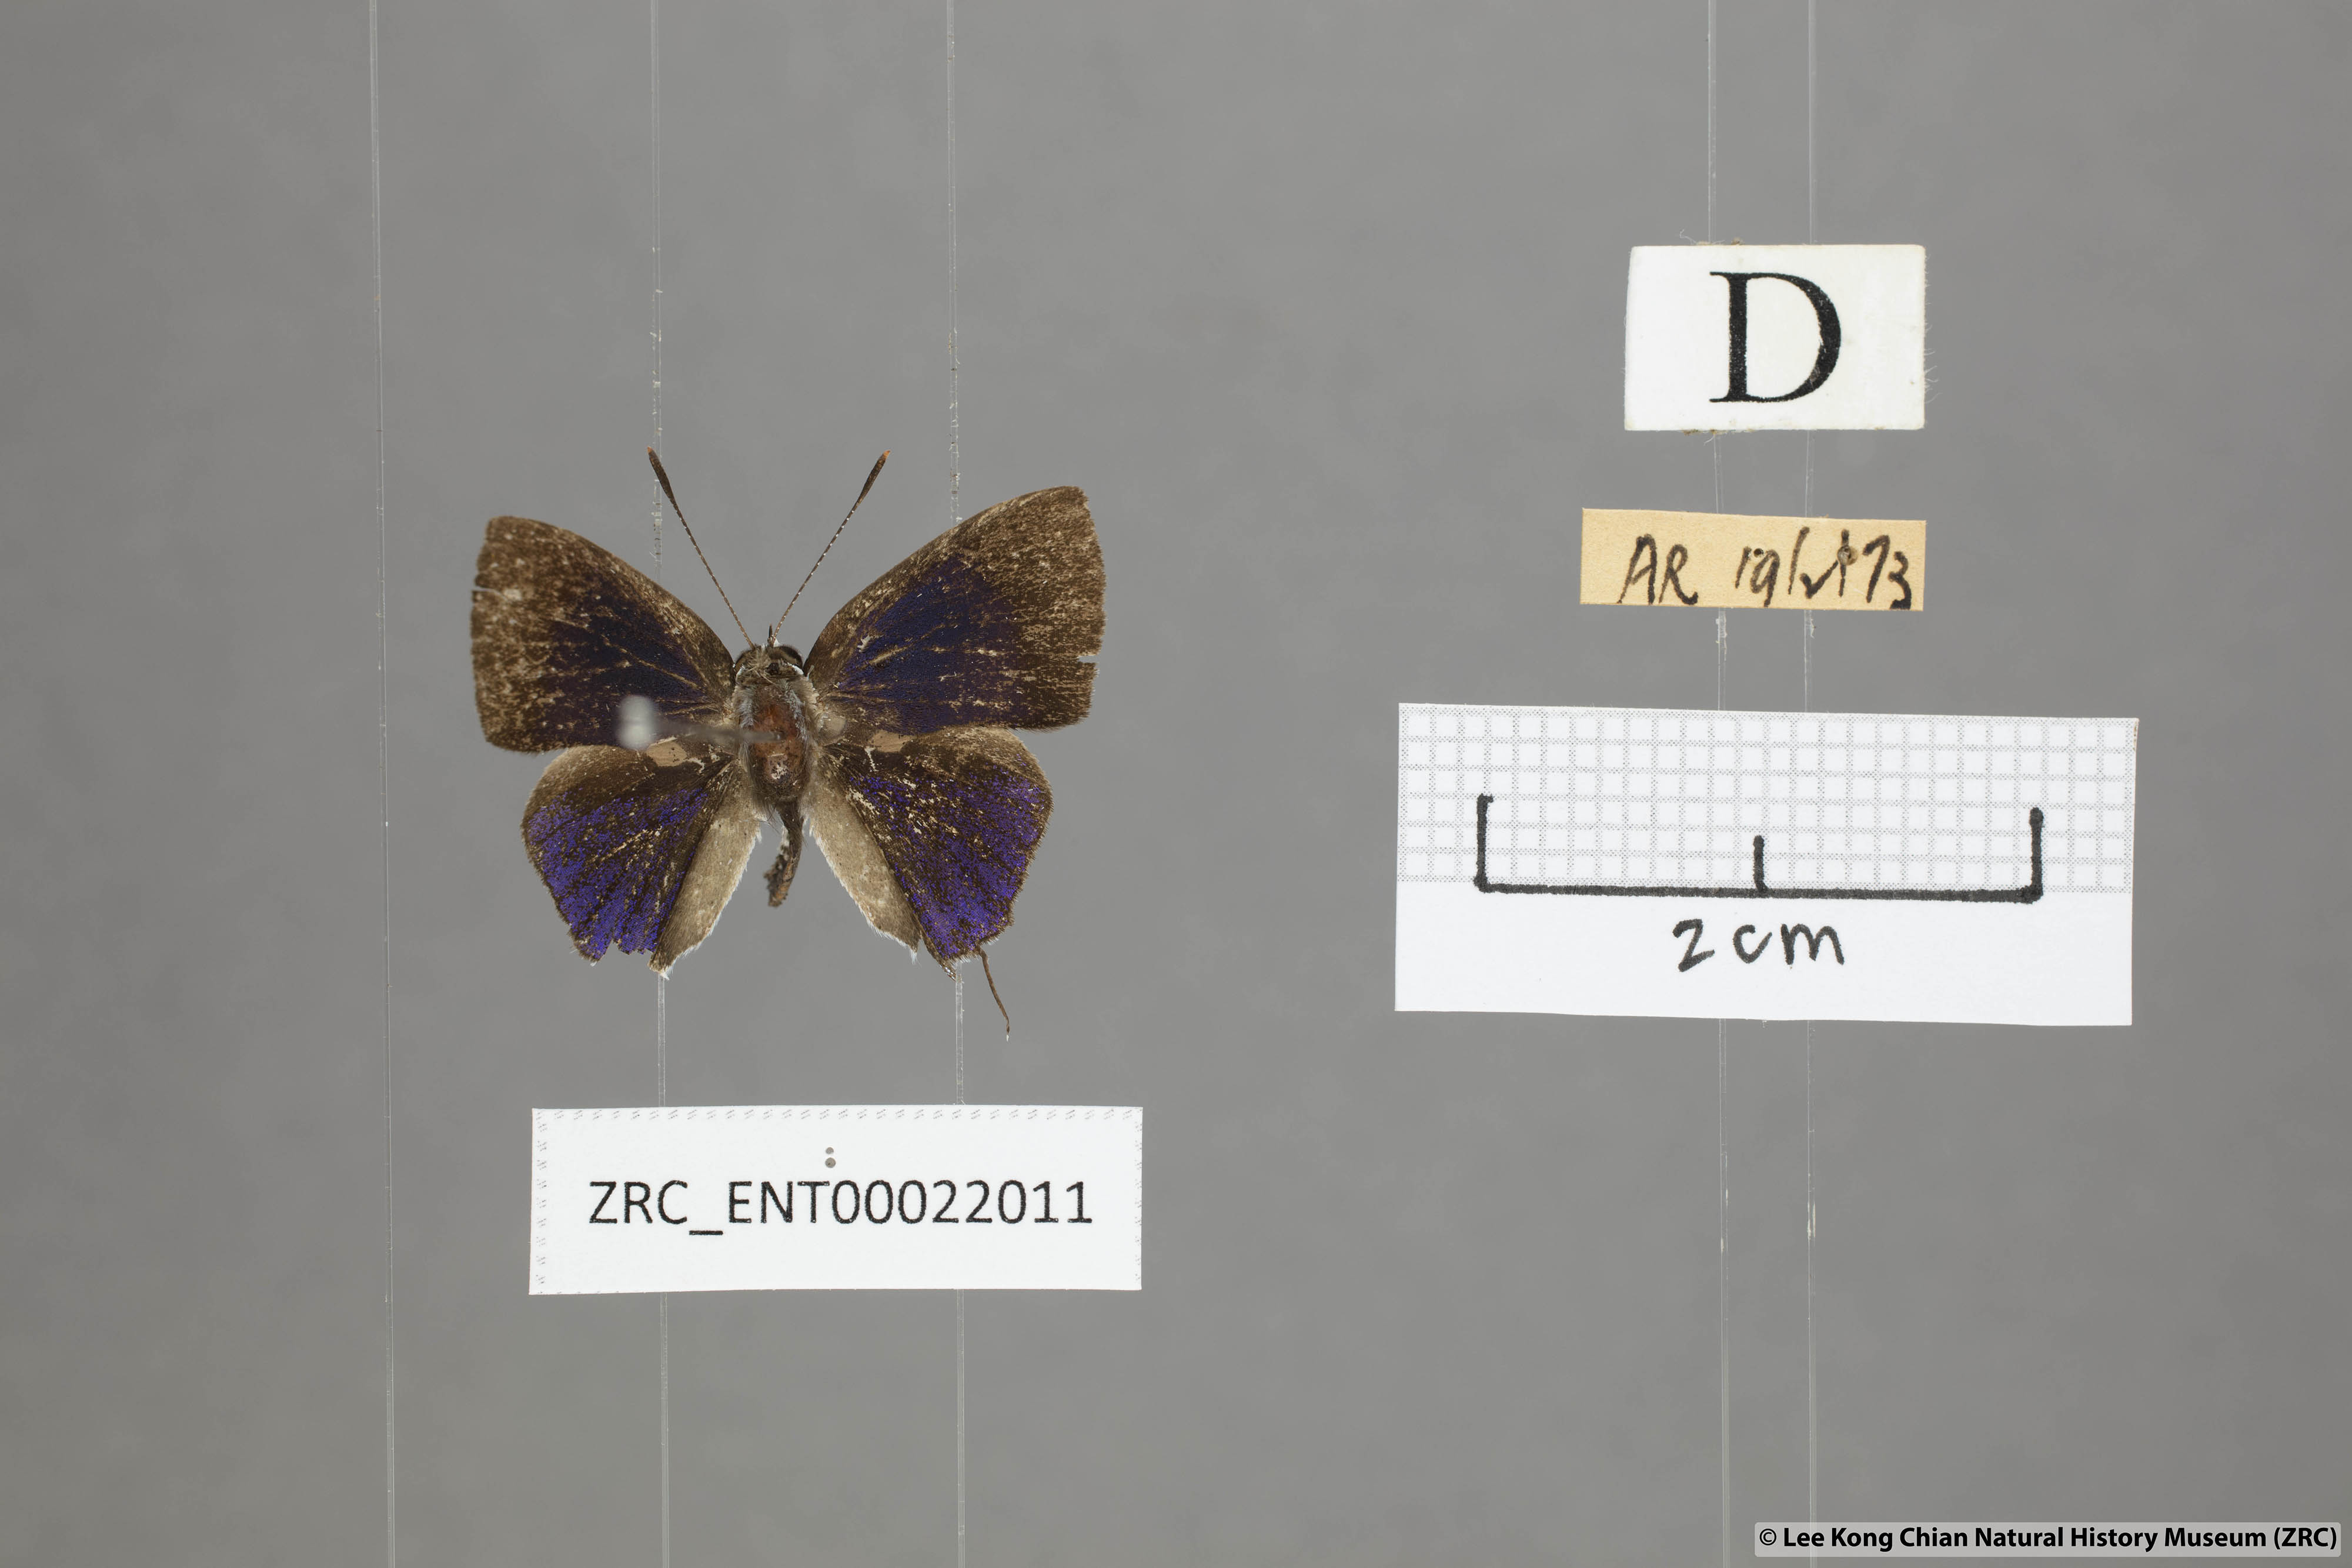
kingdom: Animalia
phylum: Arthropoda
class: Insecta
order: Lepidoptera
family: Lycaenidae
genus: Sinthusa
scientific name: Sinthusa nasaka
